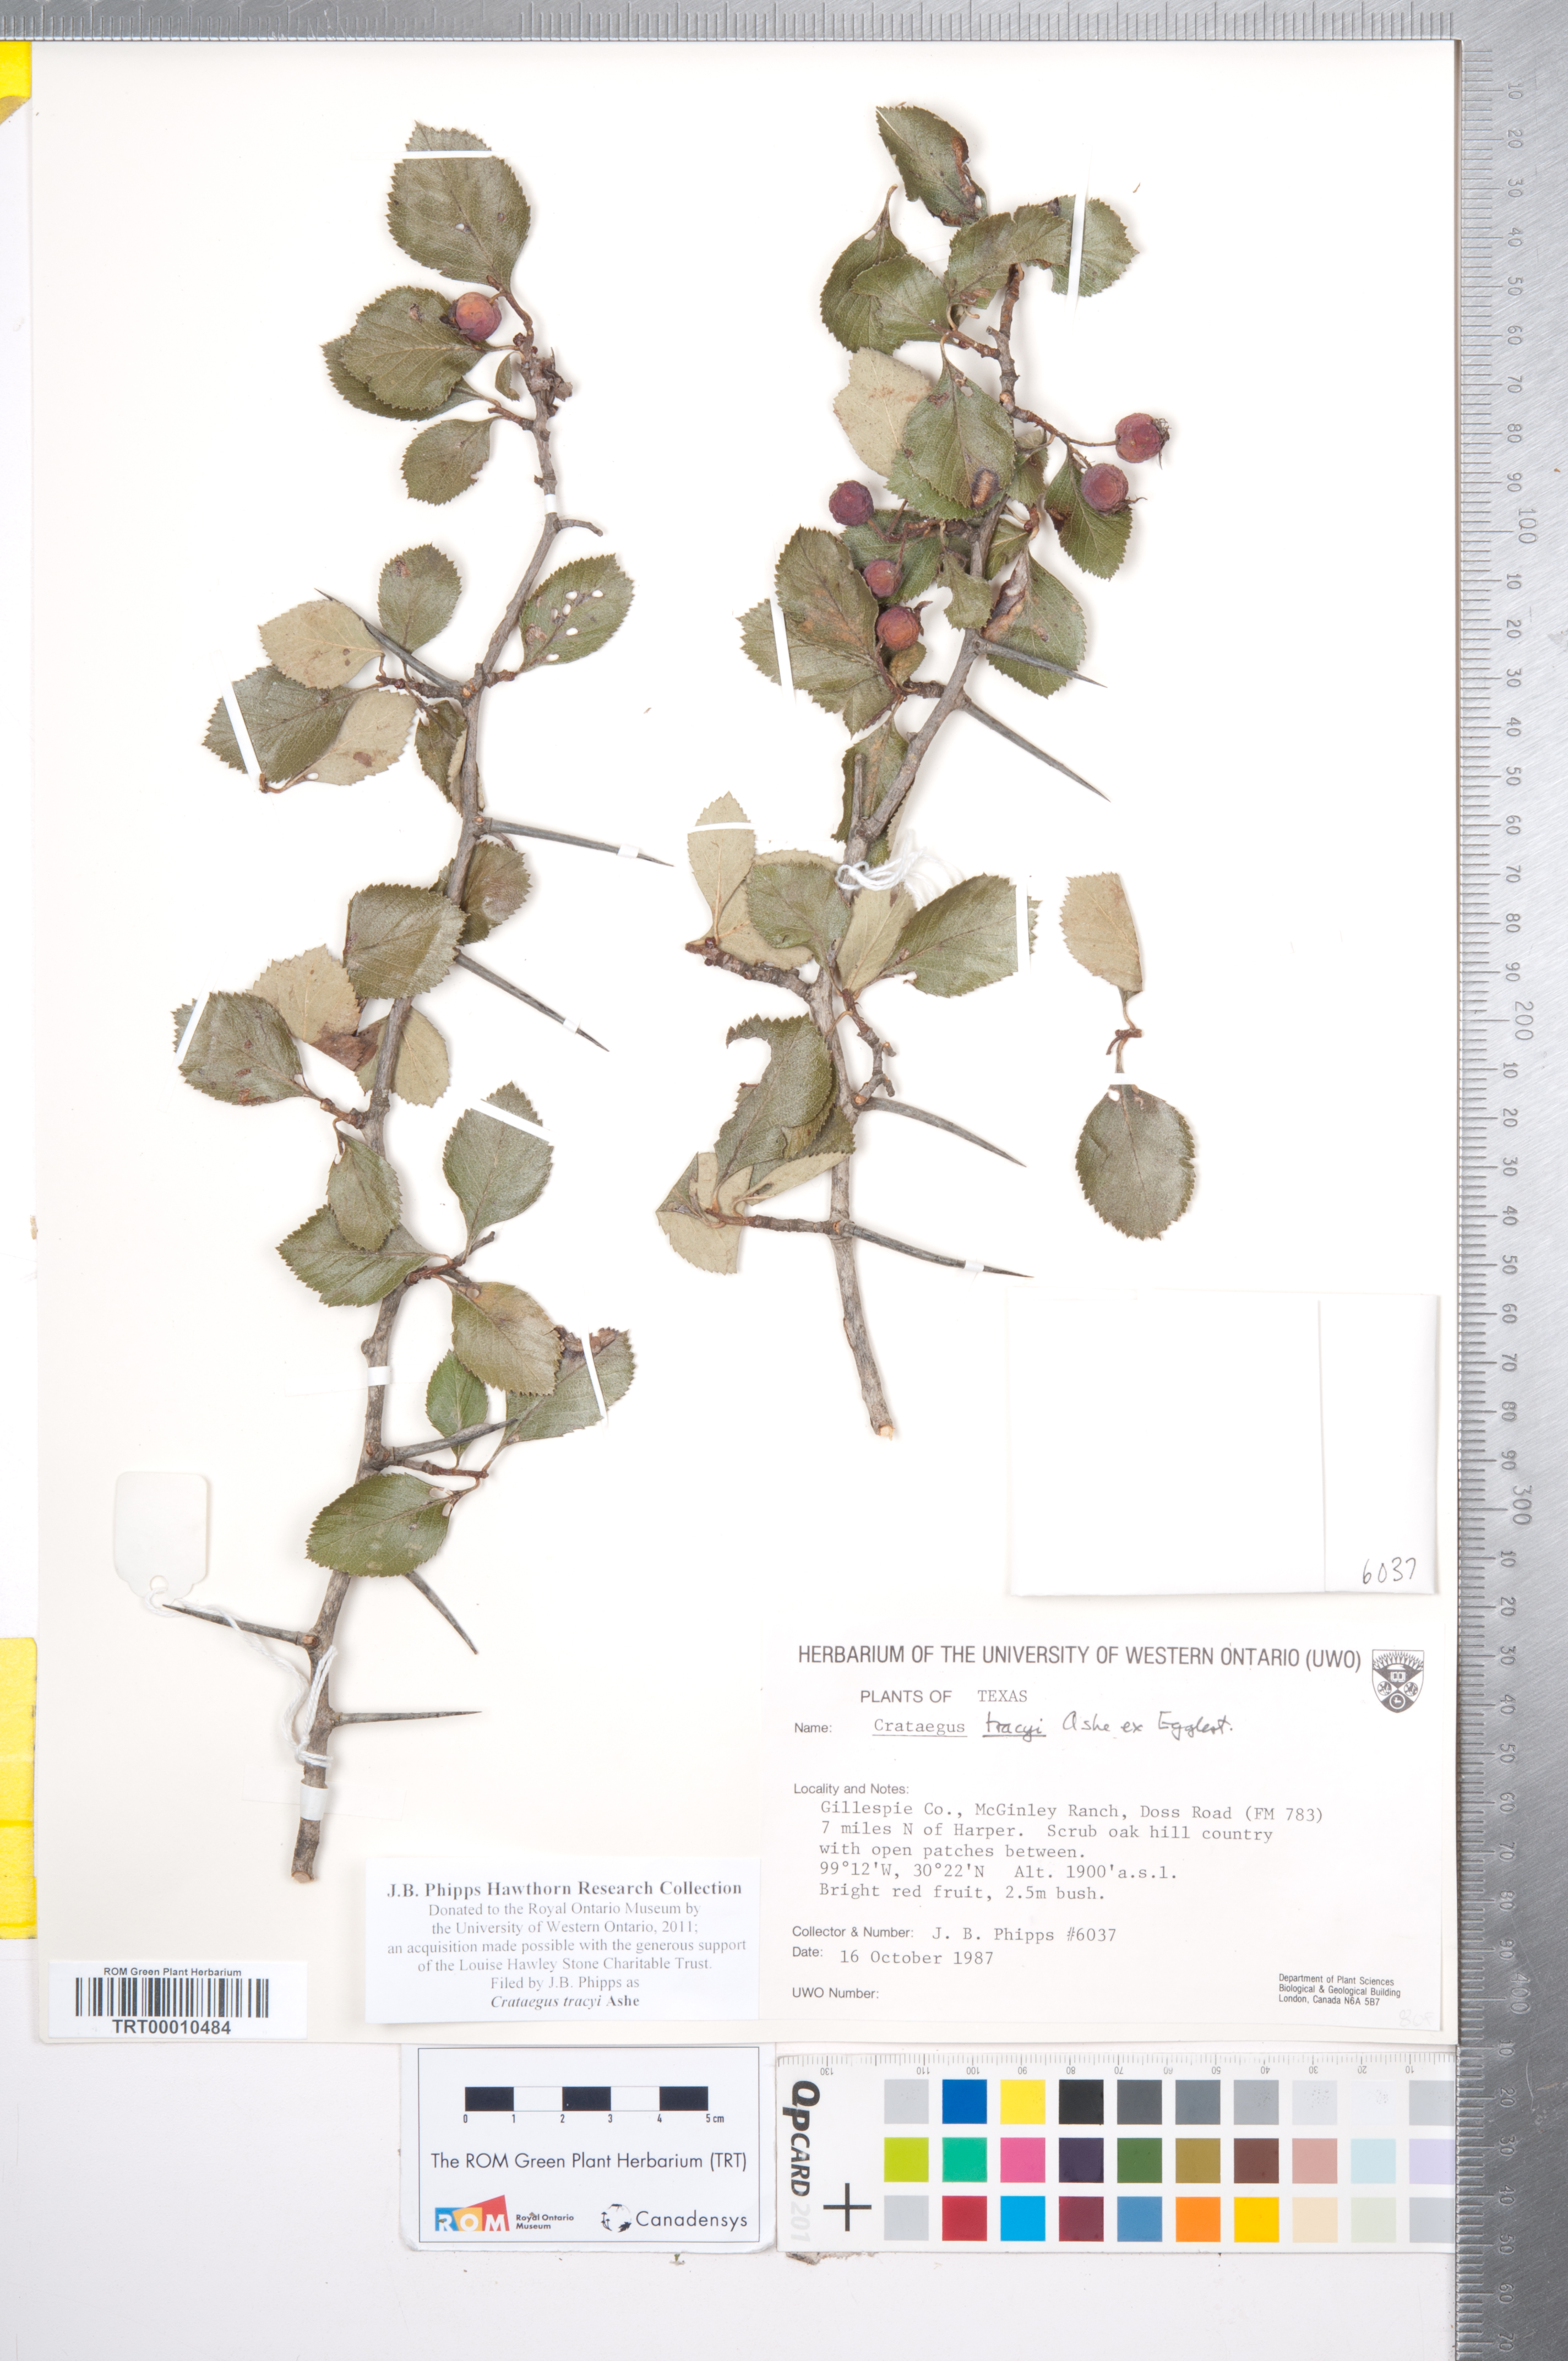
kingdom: Plantae
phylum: Tracheophyta
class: Magnoliopsida
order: Rosales
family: Rosaceae
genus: Crataegus
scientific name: Crataegus tracyi
